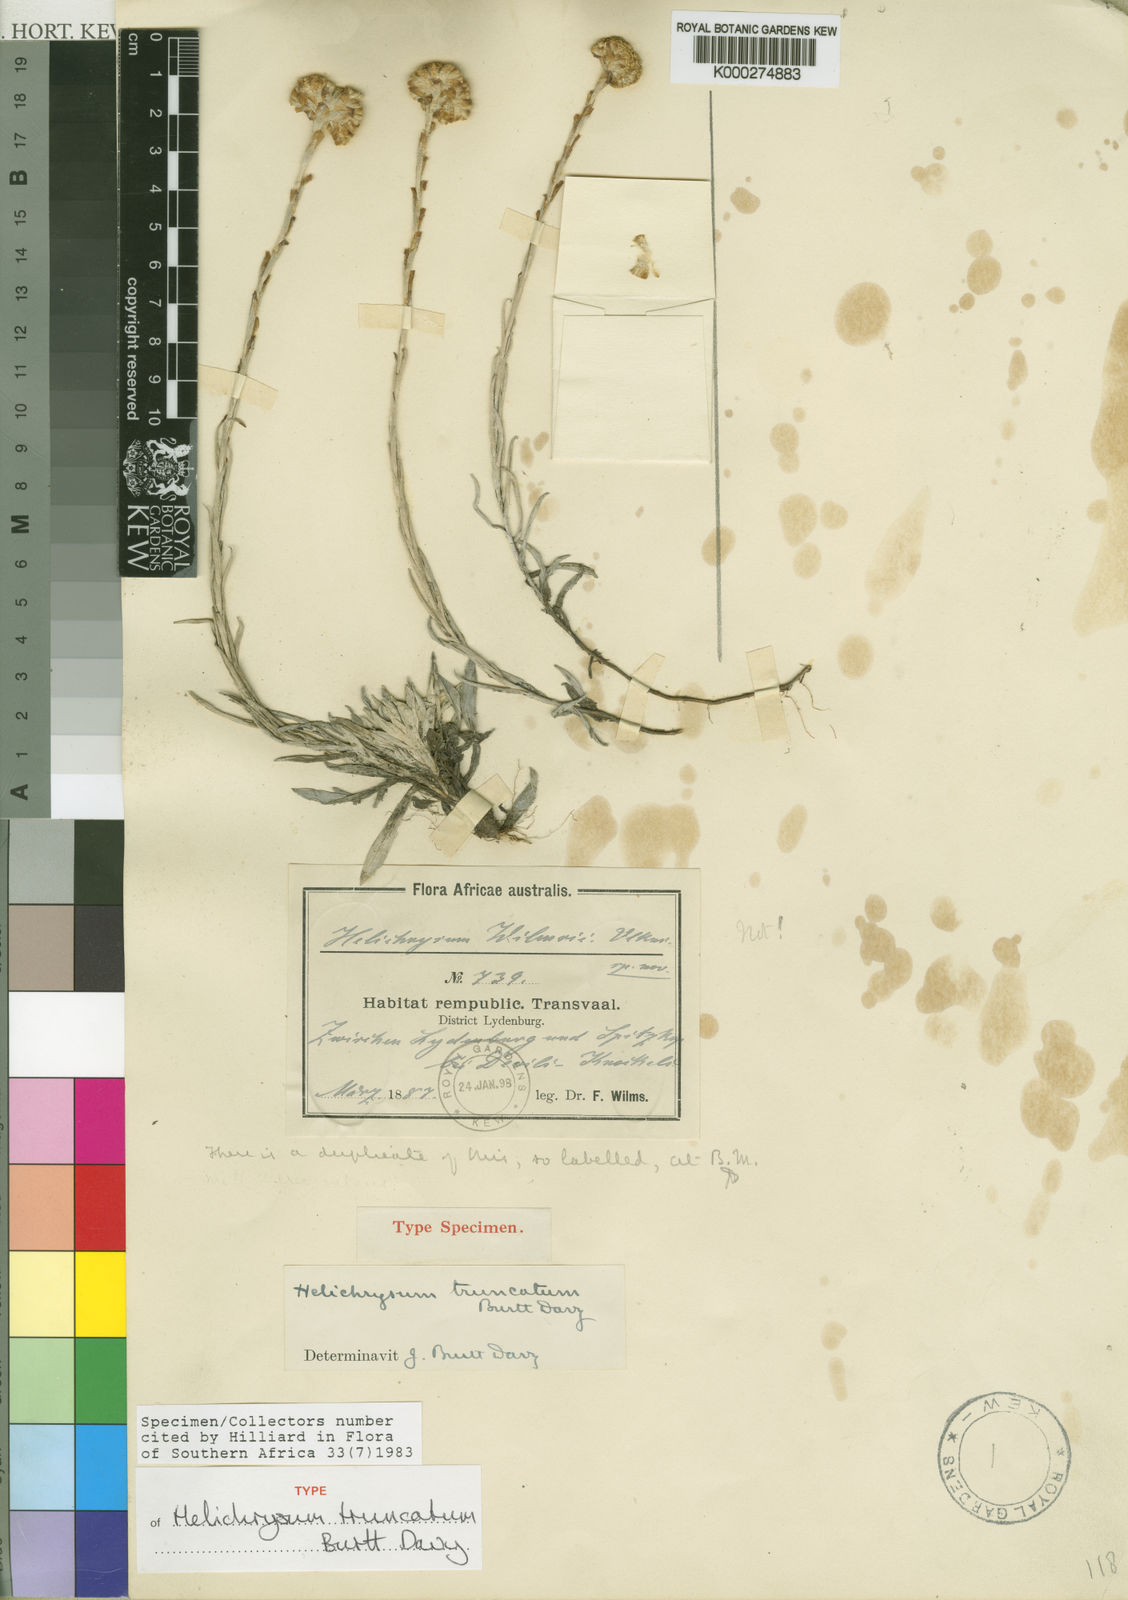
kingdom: Plantae
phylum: Tracheophyta
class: Magnoliopsida
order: Asterales
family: Asteraceae
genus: Helichrysum
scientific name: Helichrysum truncatum
